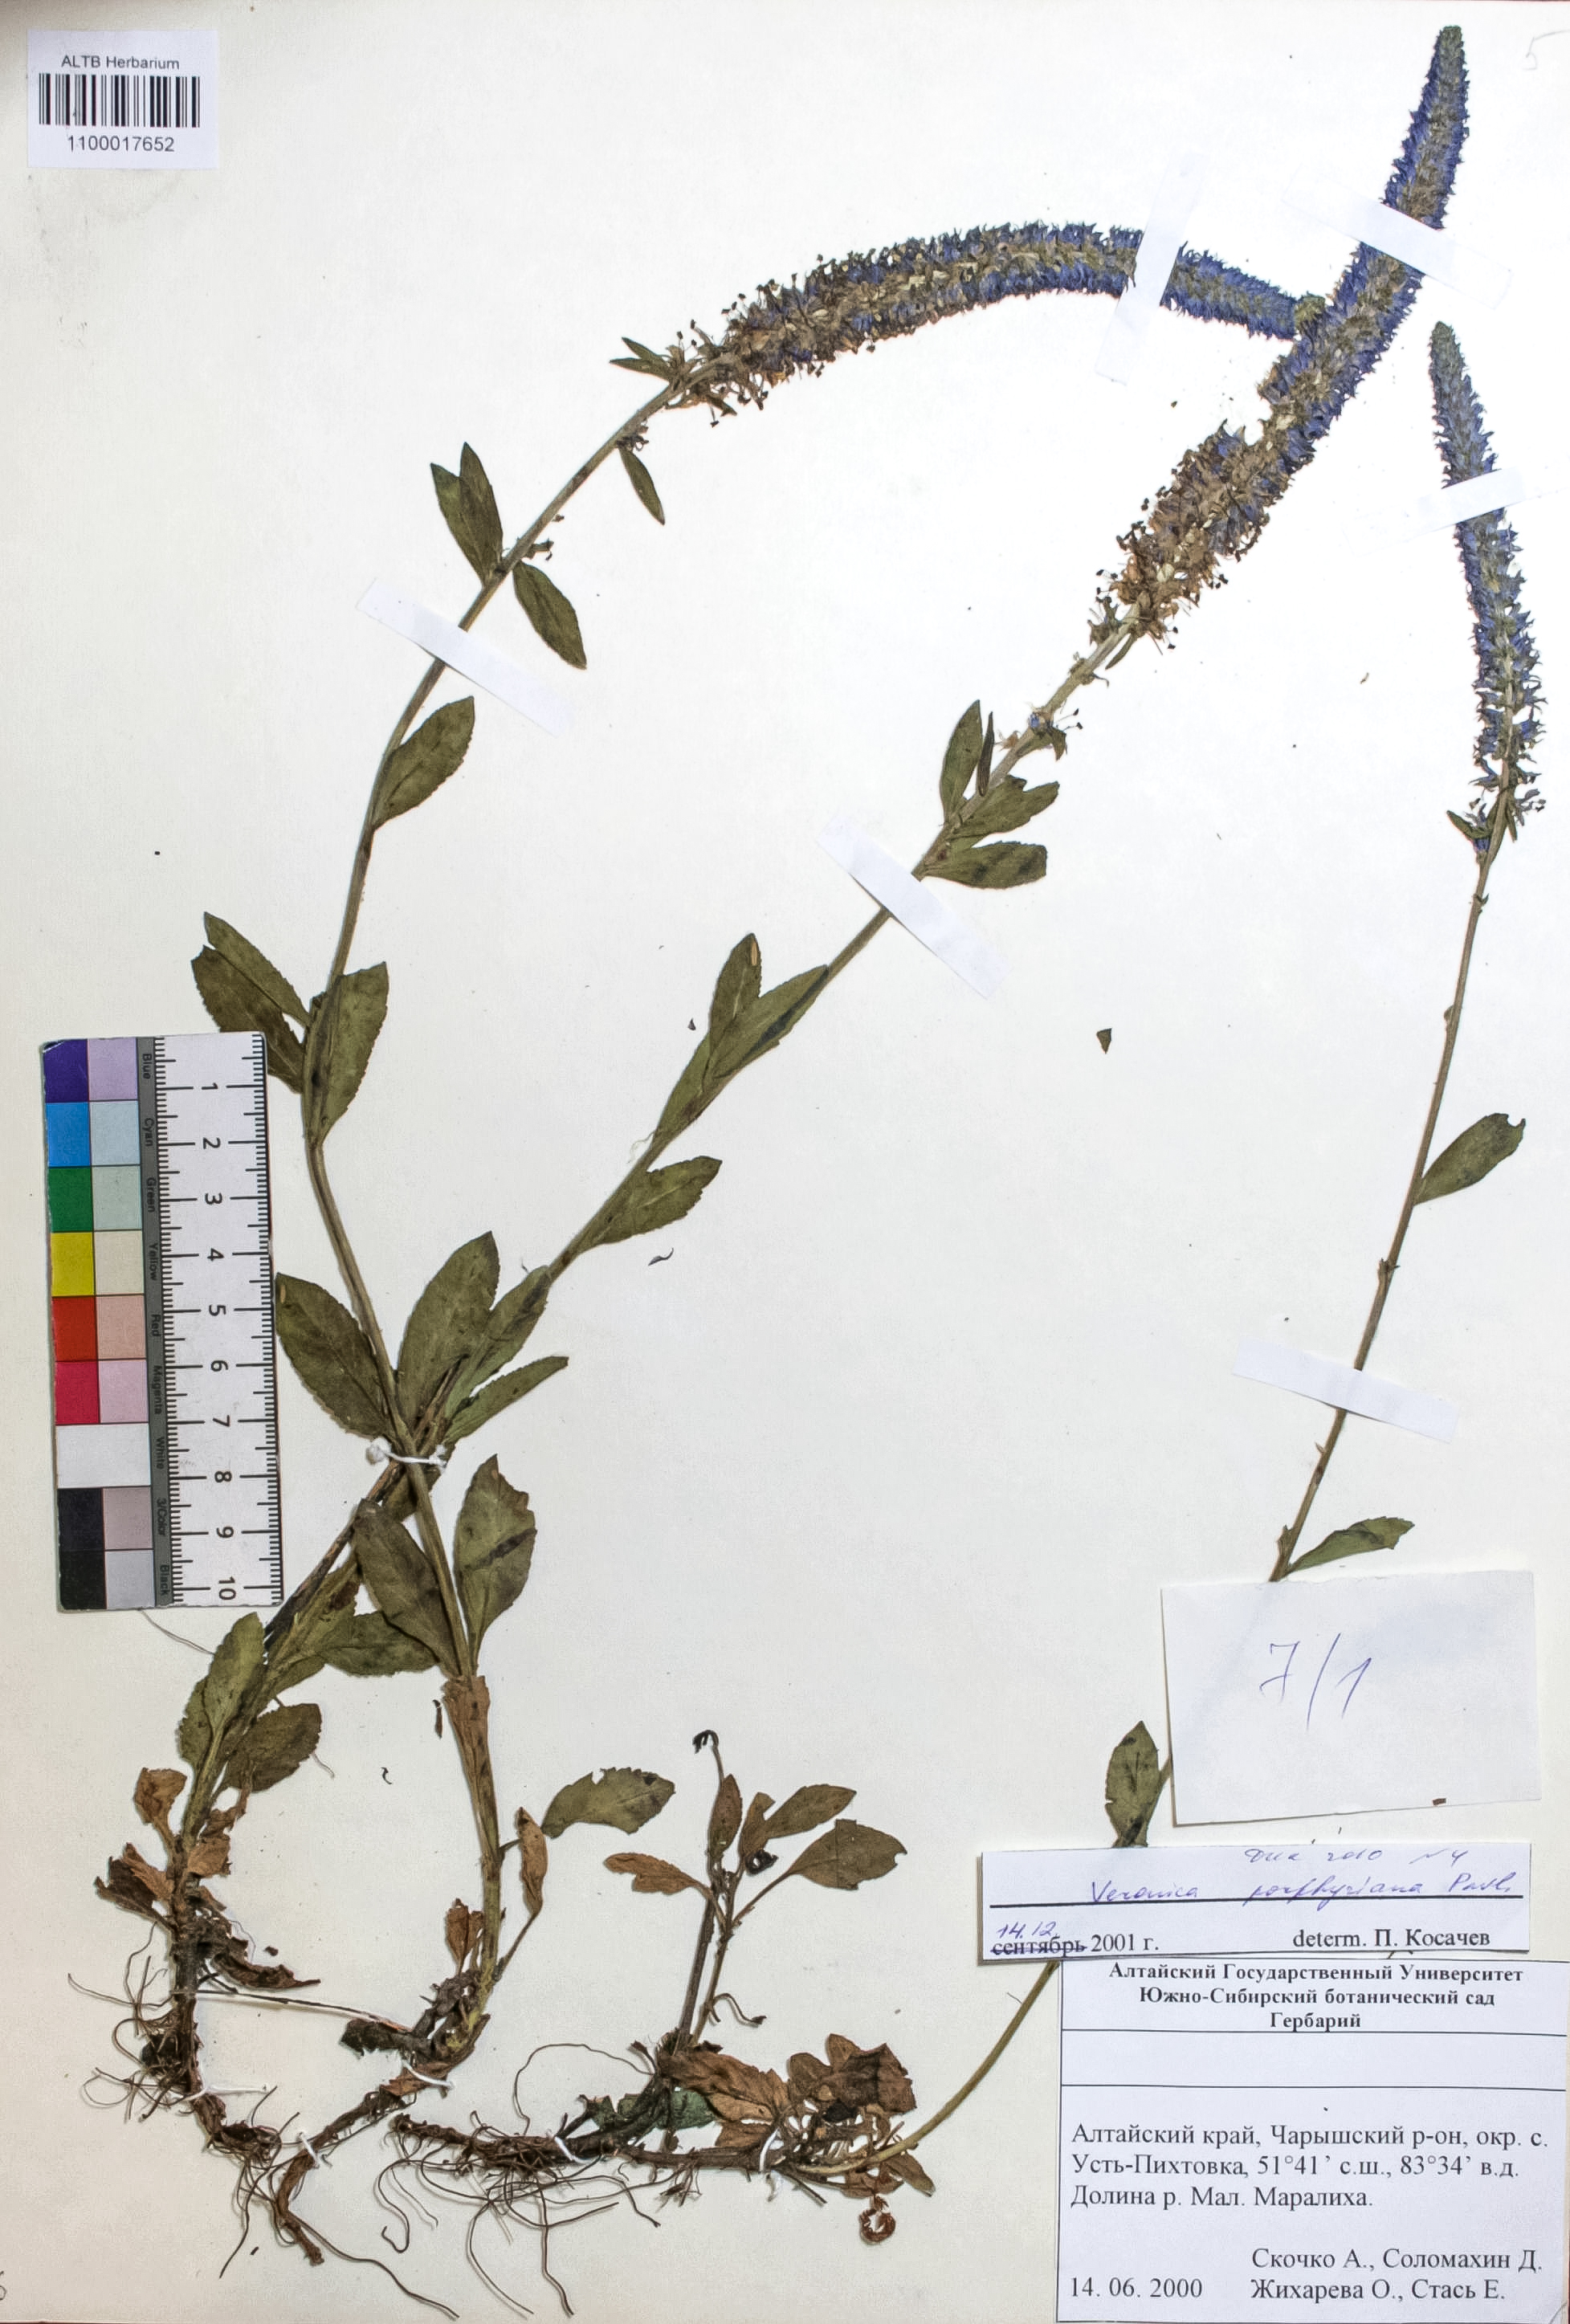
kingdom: Plantae
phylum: Tracheophyta
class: Magnoliopsida
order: Lamiales
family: Plantaginaceae
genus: Veronica
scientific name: Veronica porphyriana
